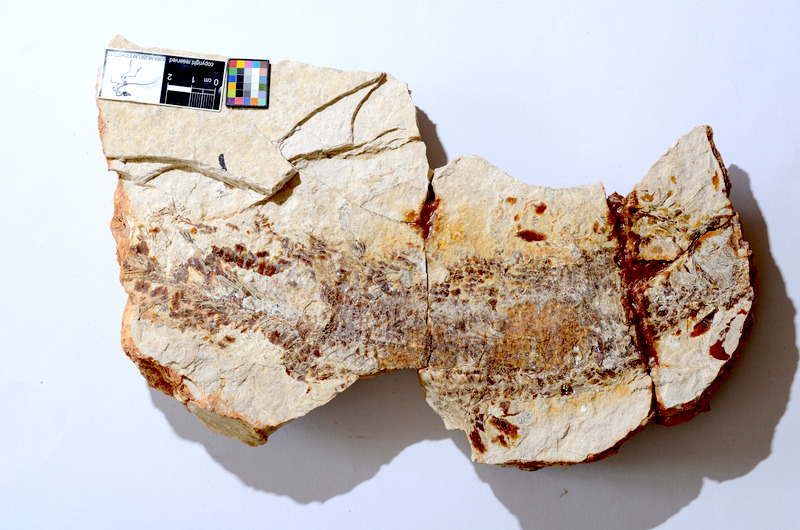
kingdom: Animalia
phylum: Chordata
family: Aspidorhynchidae
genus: Aspidorhynchus
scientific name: Aspidorhynchus
